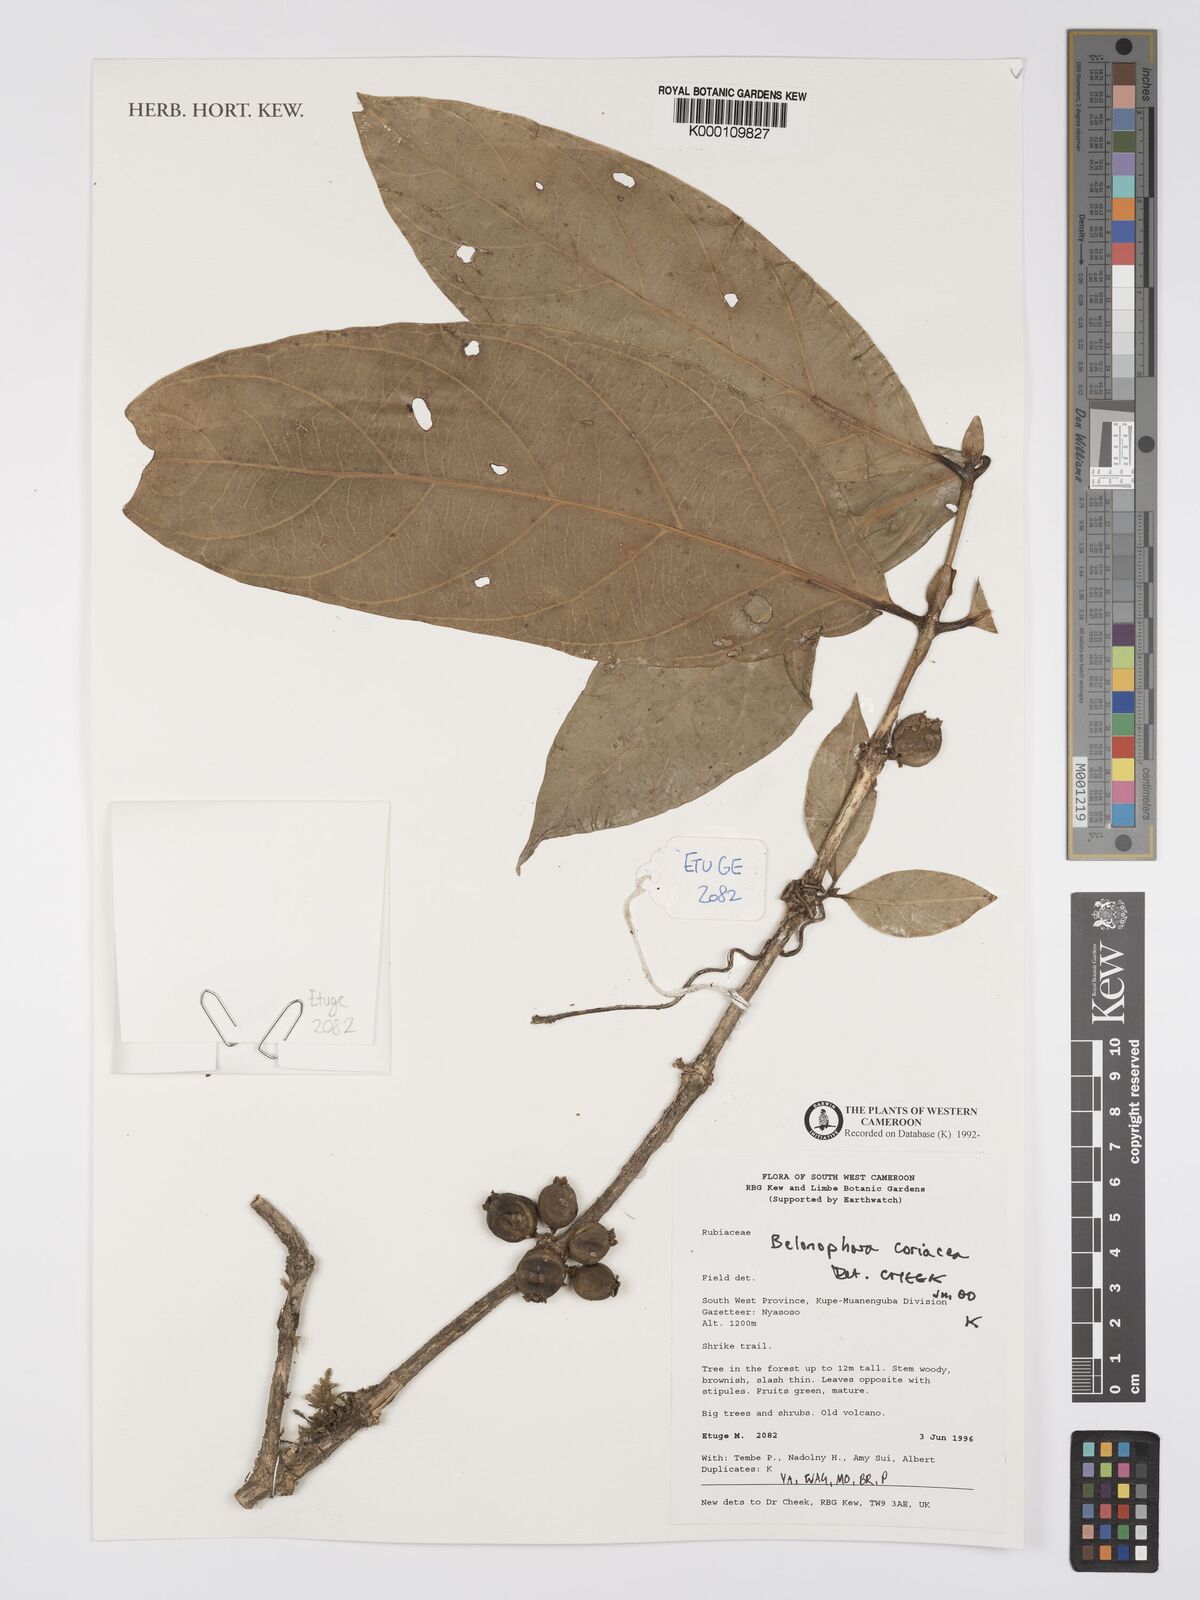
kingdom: Plantae
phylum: Tracheophyta
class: Magnoliopsida
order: Gentianales
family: Rubiaceae
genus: Belonophora
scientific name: Belonophora coriacea
